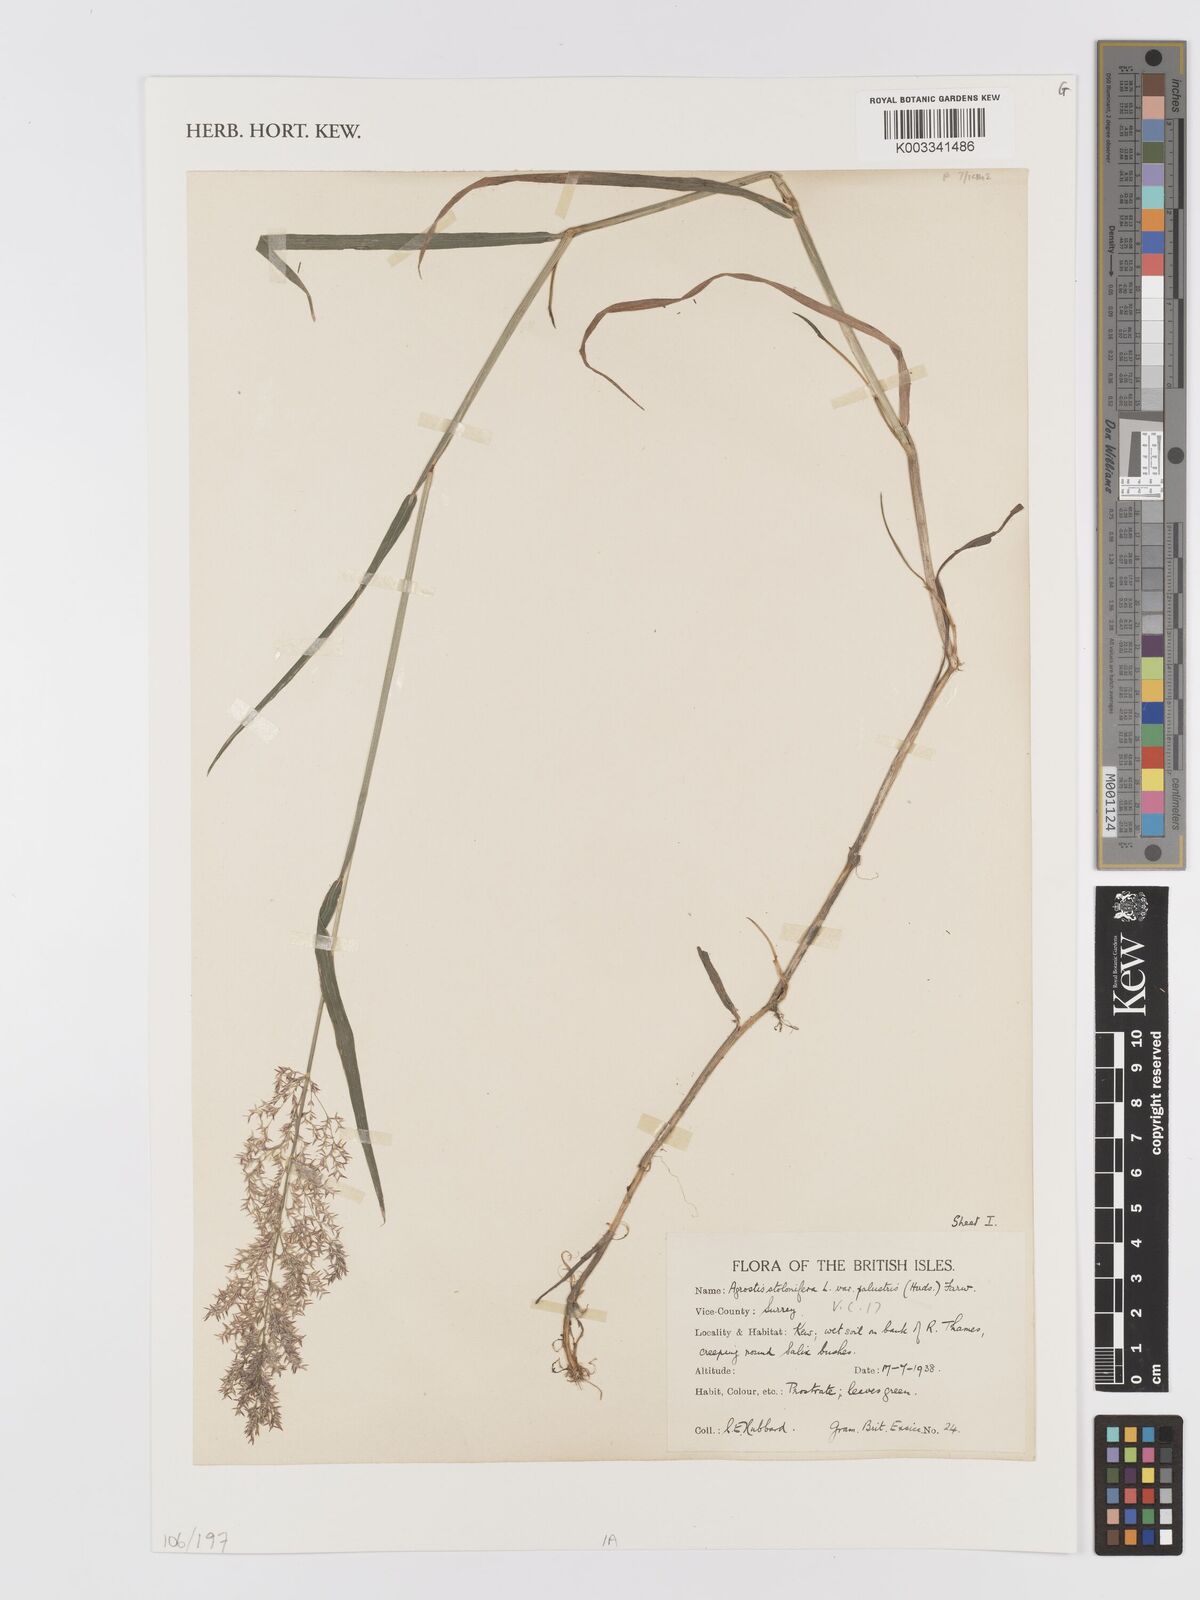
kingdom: Plantae
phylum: Tracheophyta
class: Liliopsida
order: Poales
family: Poaceae
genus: Agrostis
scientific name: Agrostis stolonifera
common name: Creeping bentgrass
